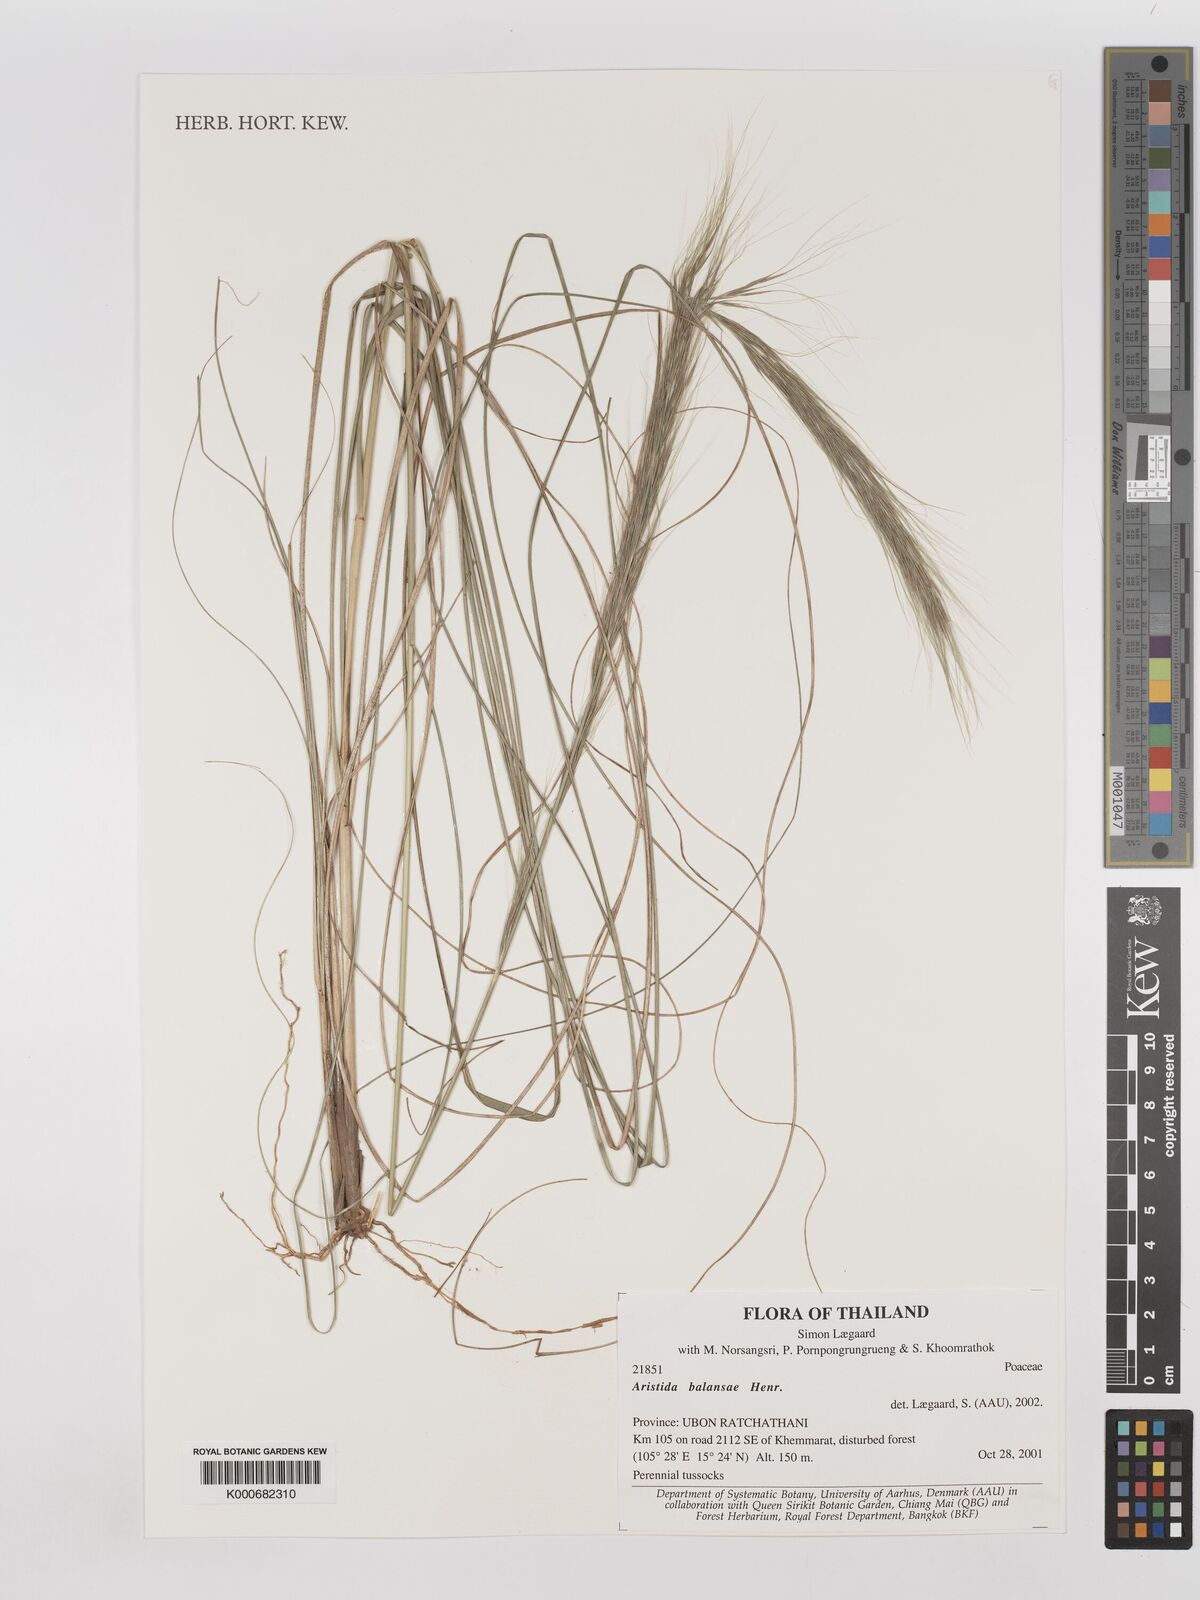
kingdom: Plantae
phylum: Tracheophyta
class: Liliopsida
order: Poales
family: Poaceae
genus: Aristida
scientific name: Aristida balansae
